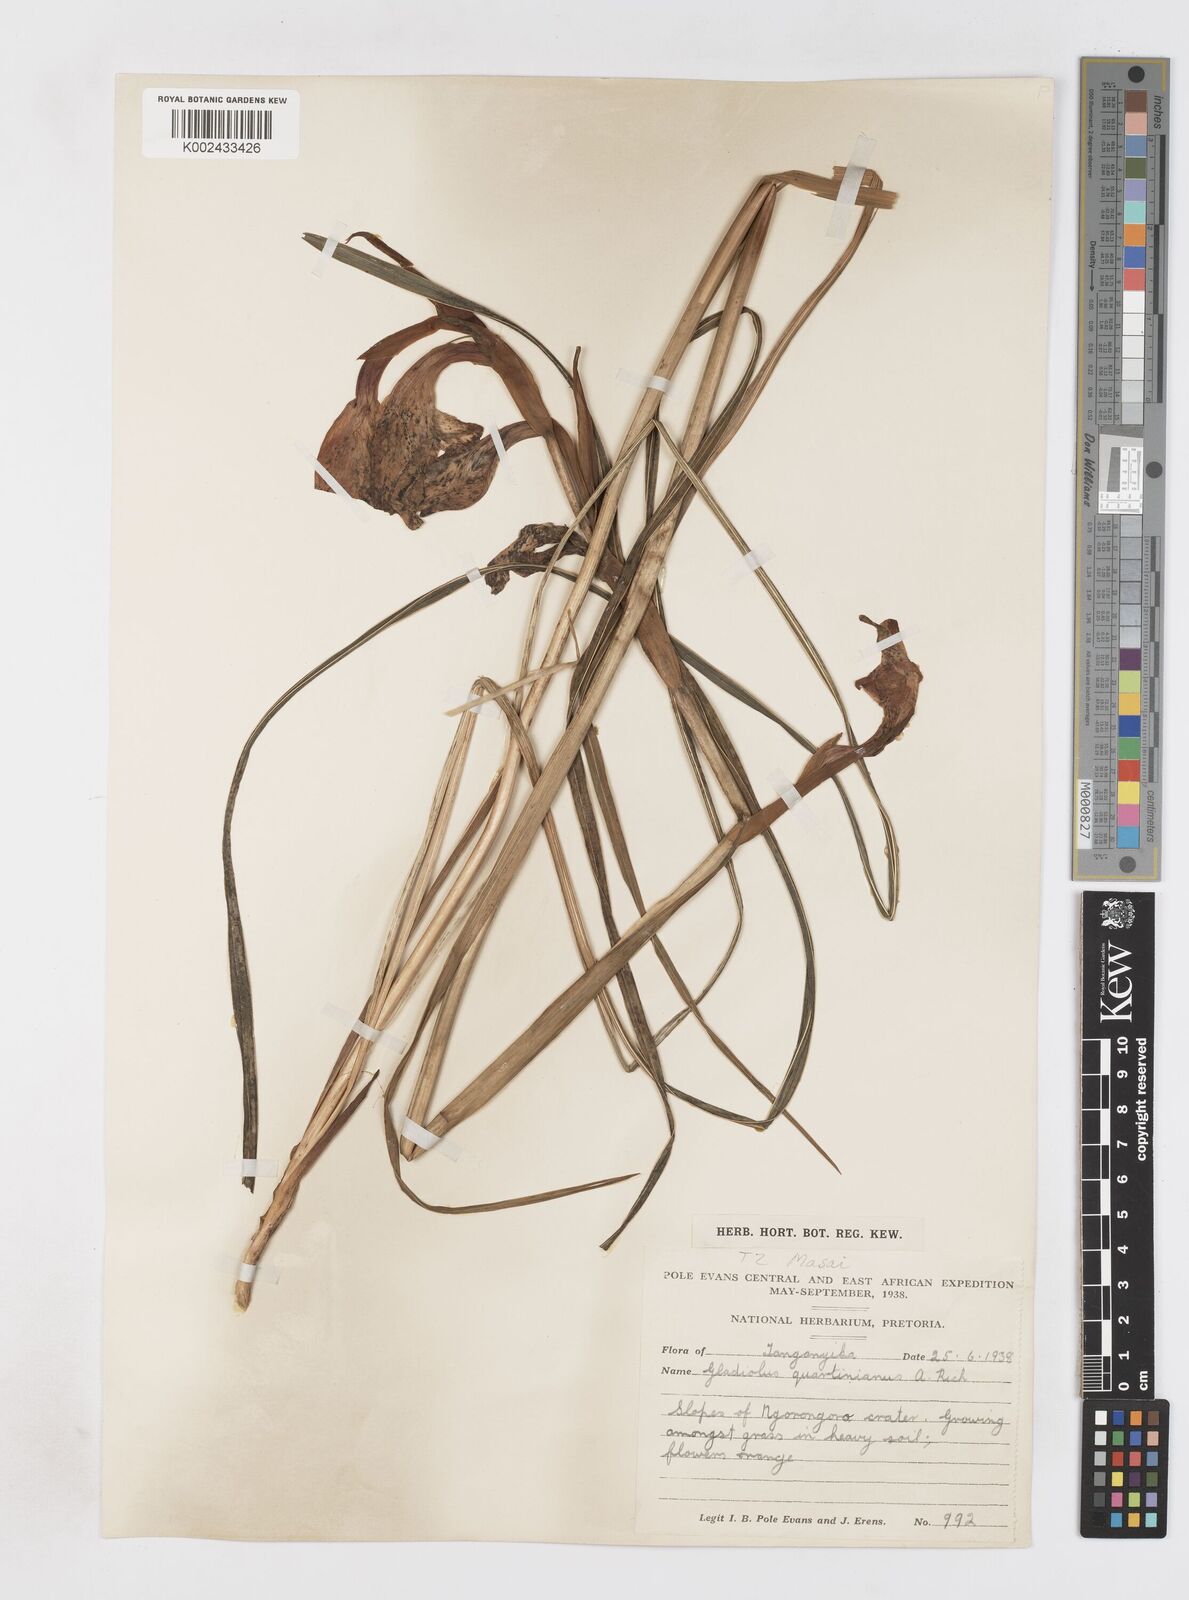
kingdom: Plantae
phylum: Tracheophyta
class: Liliopsida
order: Asparagales
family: Iridaceae
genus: Gladiolus
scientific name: Gladiolus dalenii
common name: Cornflag
